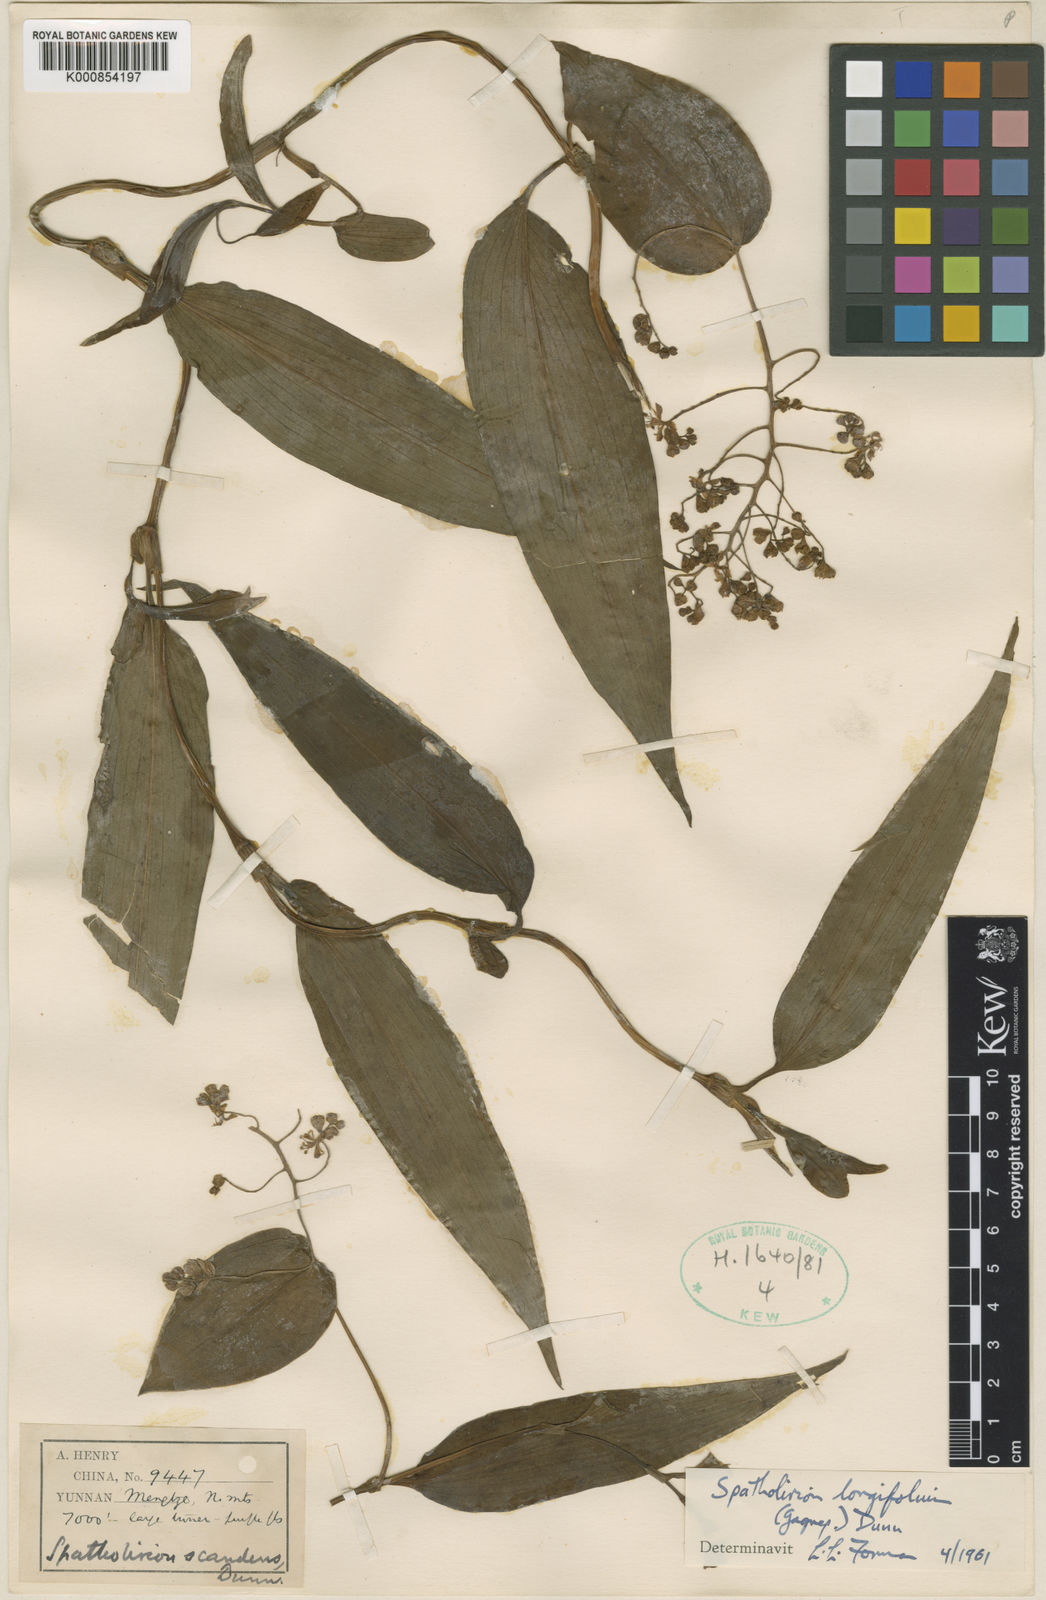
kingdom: Plantae
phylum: Tracheophyta
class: Liliopsida
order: Commelinales
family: Commelinaceae
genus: Spatholirion
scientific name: Spatholirion longifolium
